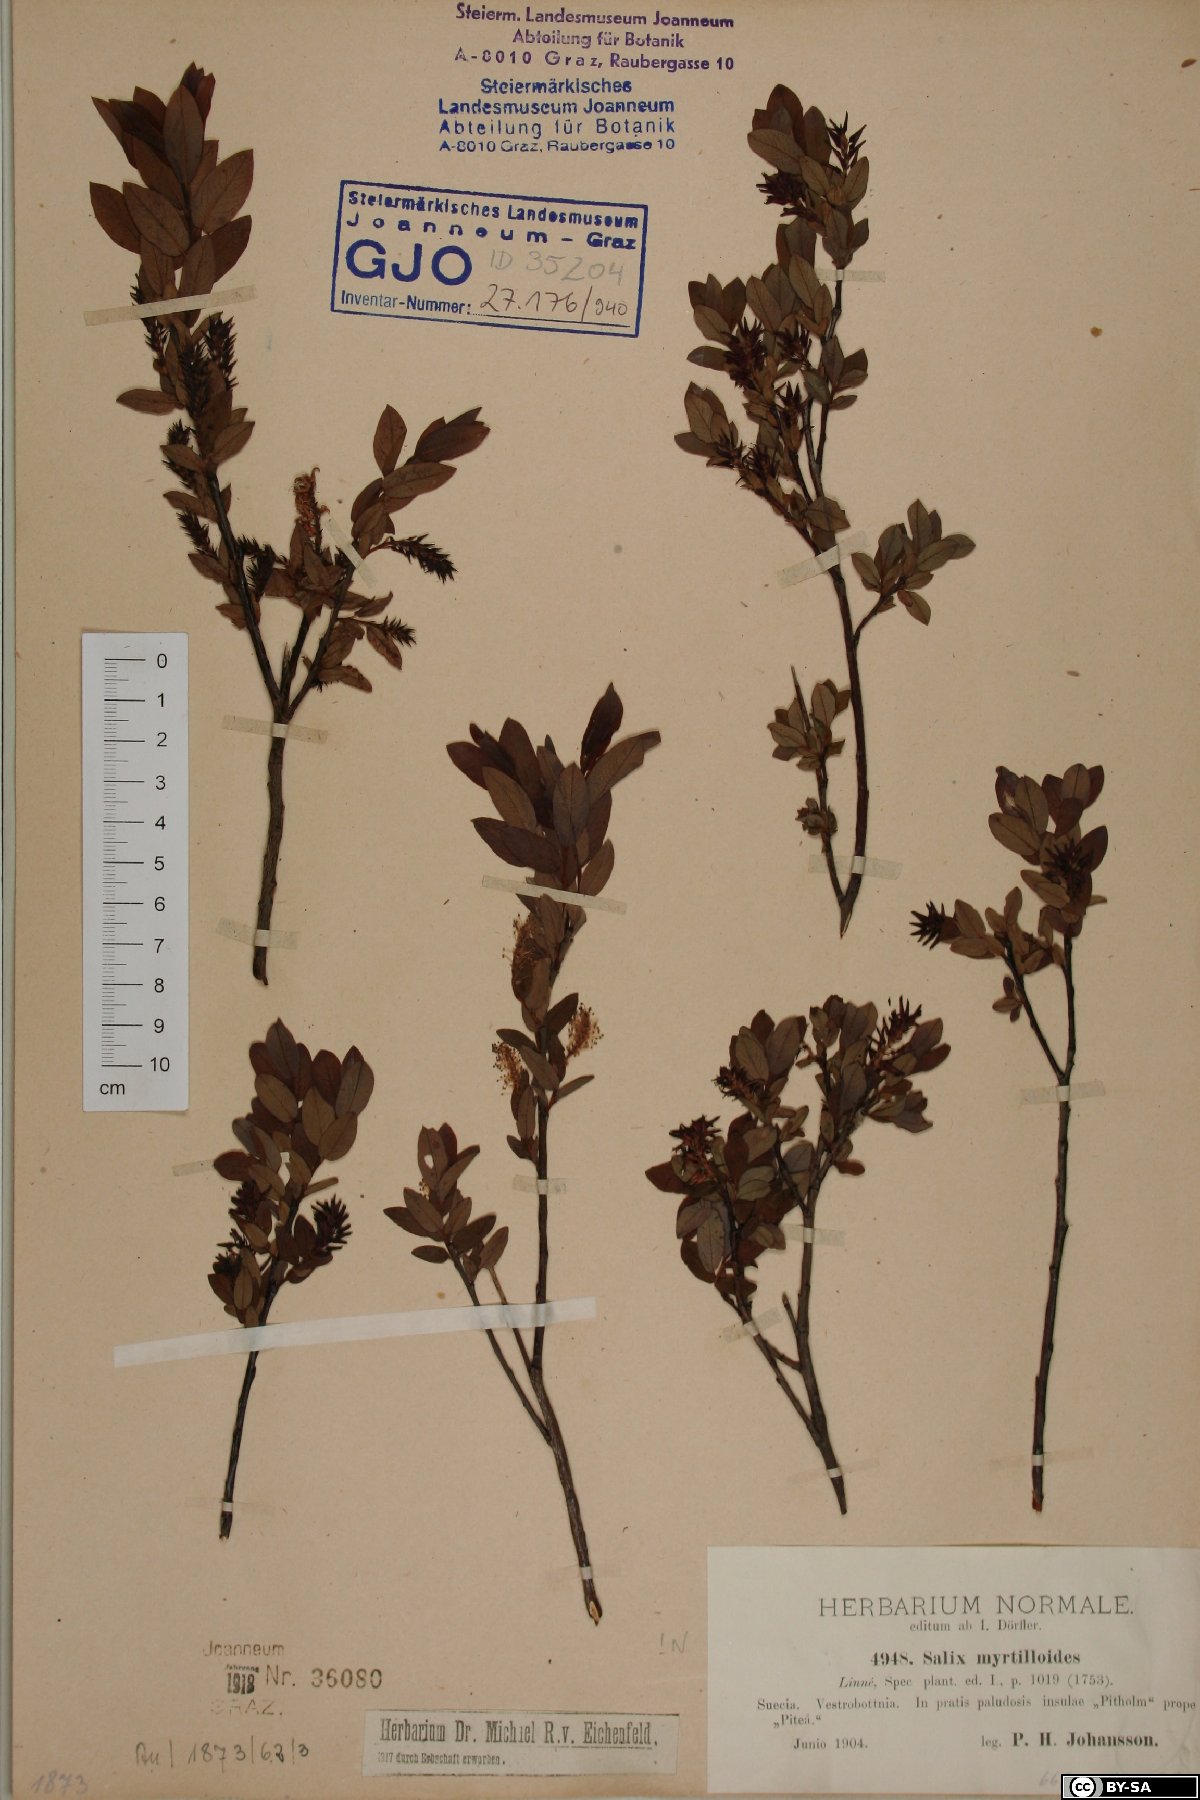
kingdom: Plantae
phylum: Tracheophyta
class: Magnoliopsida
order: Malpighiales
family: Salicaceae
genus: Salix
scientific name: Salix myrtilloides
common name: Myrtle-leaved willow
